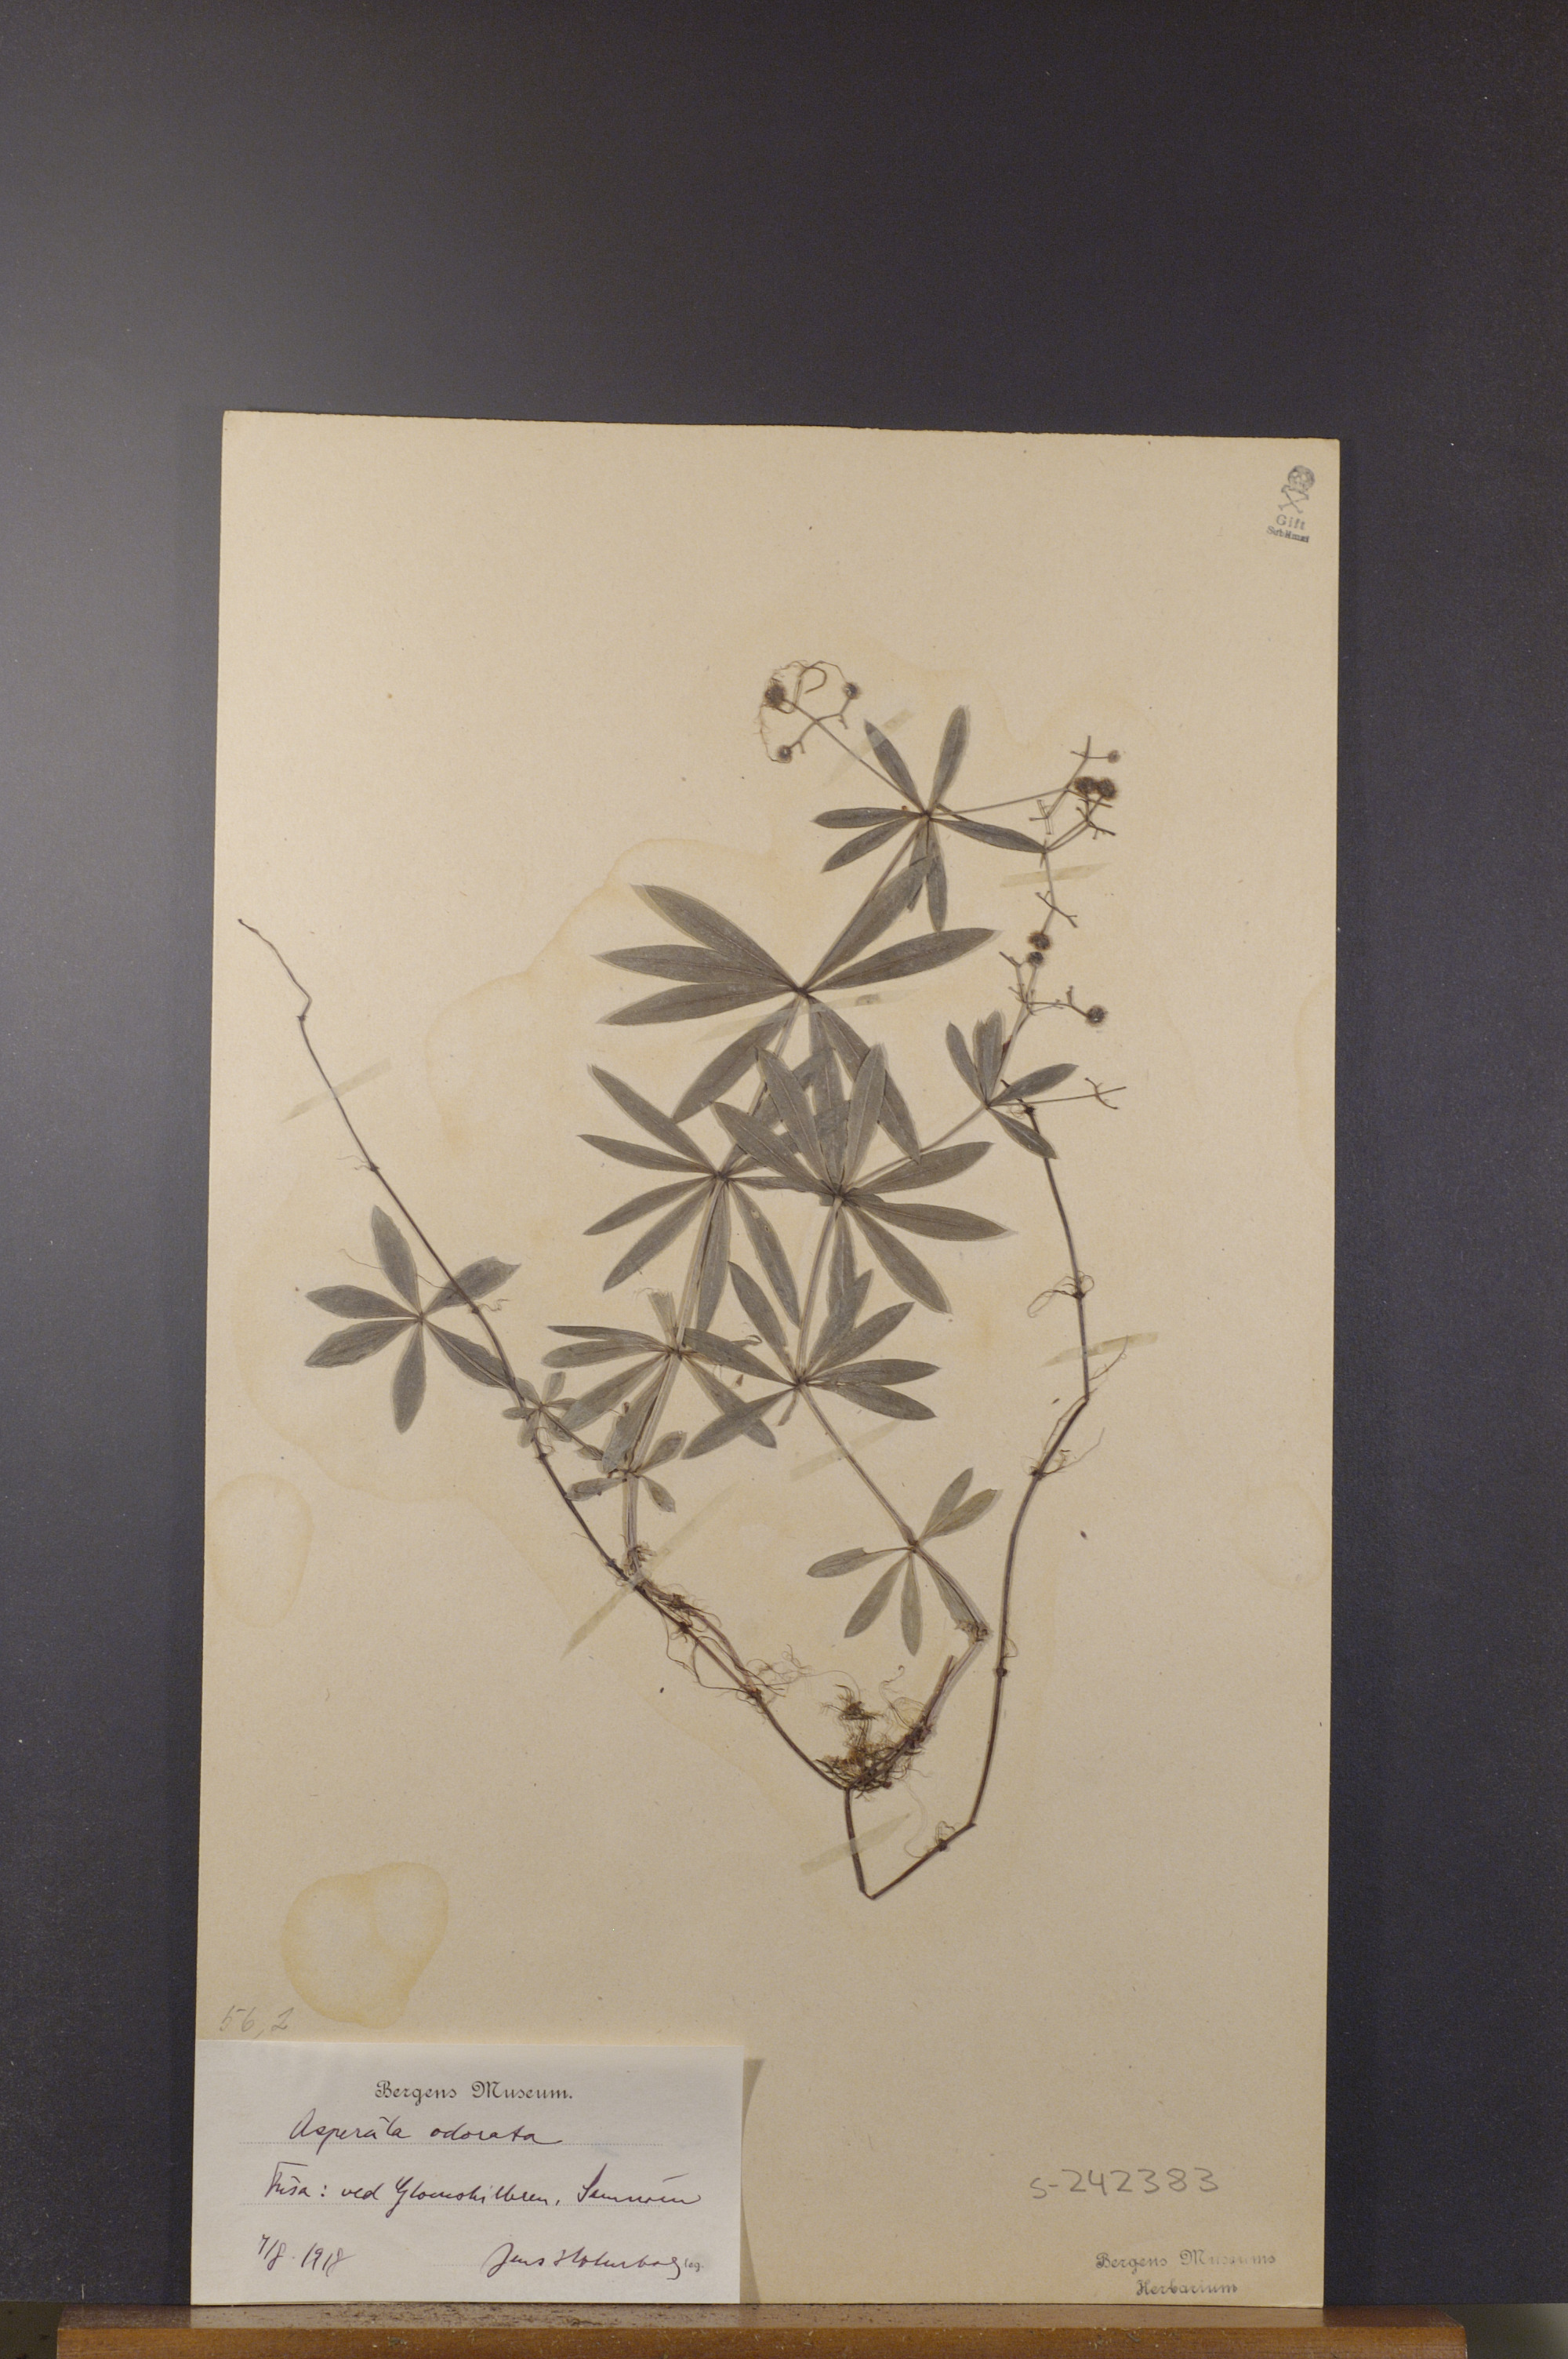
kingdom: Plantae
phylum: Tracheophyta
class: Magnoliopsida
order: Gentianales
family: Rubiaceae
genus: Galium
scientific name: Galium odoratum
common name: Sweet woodruff
